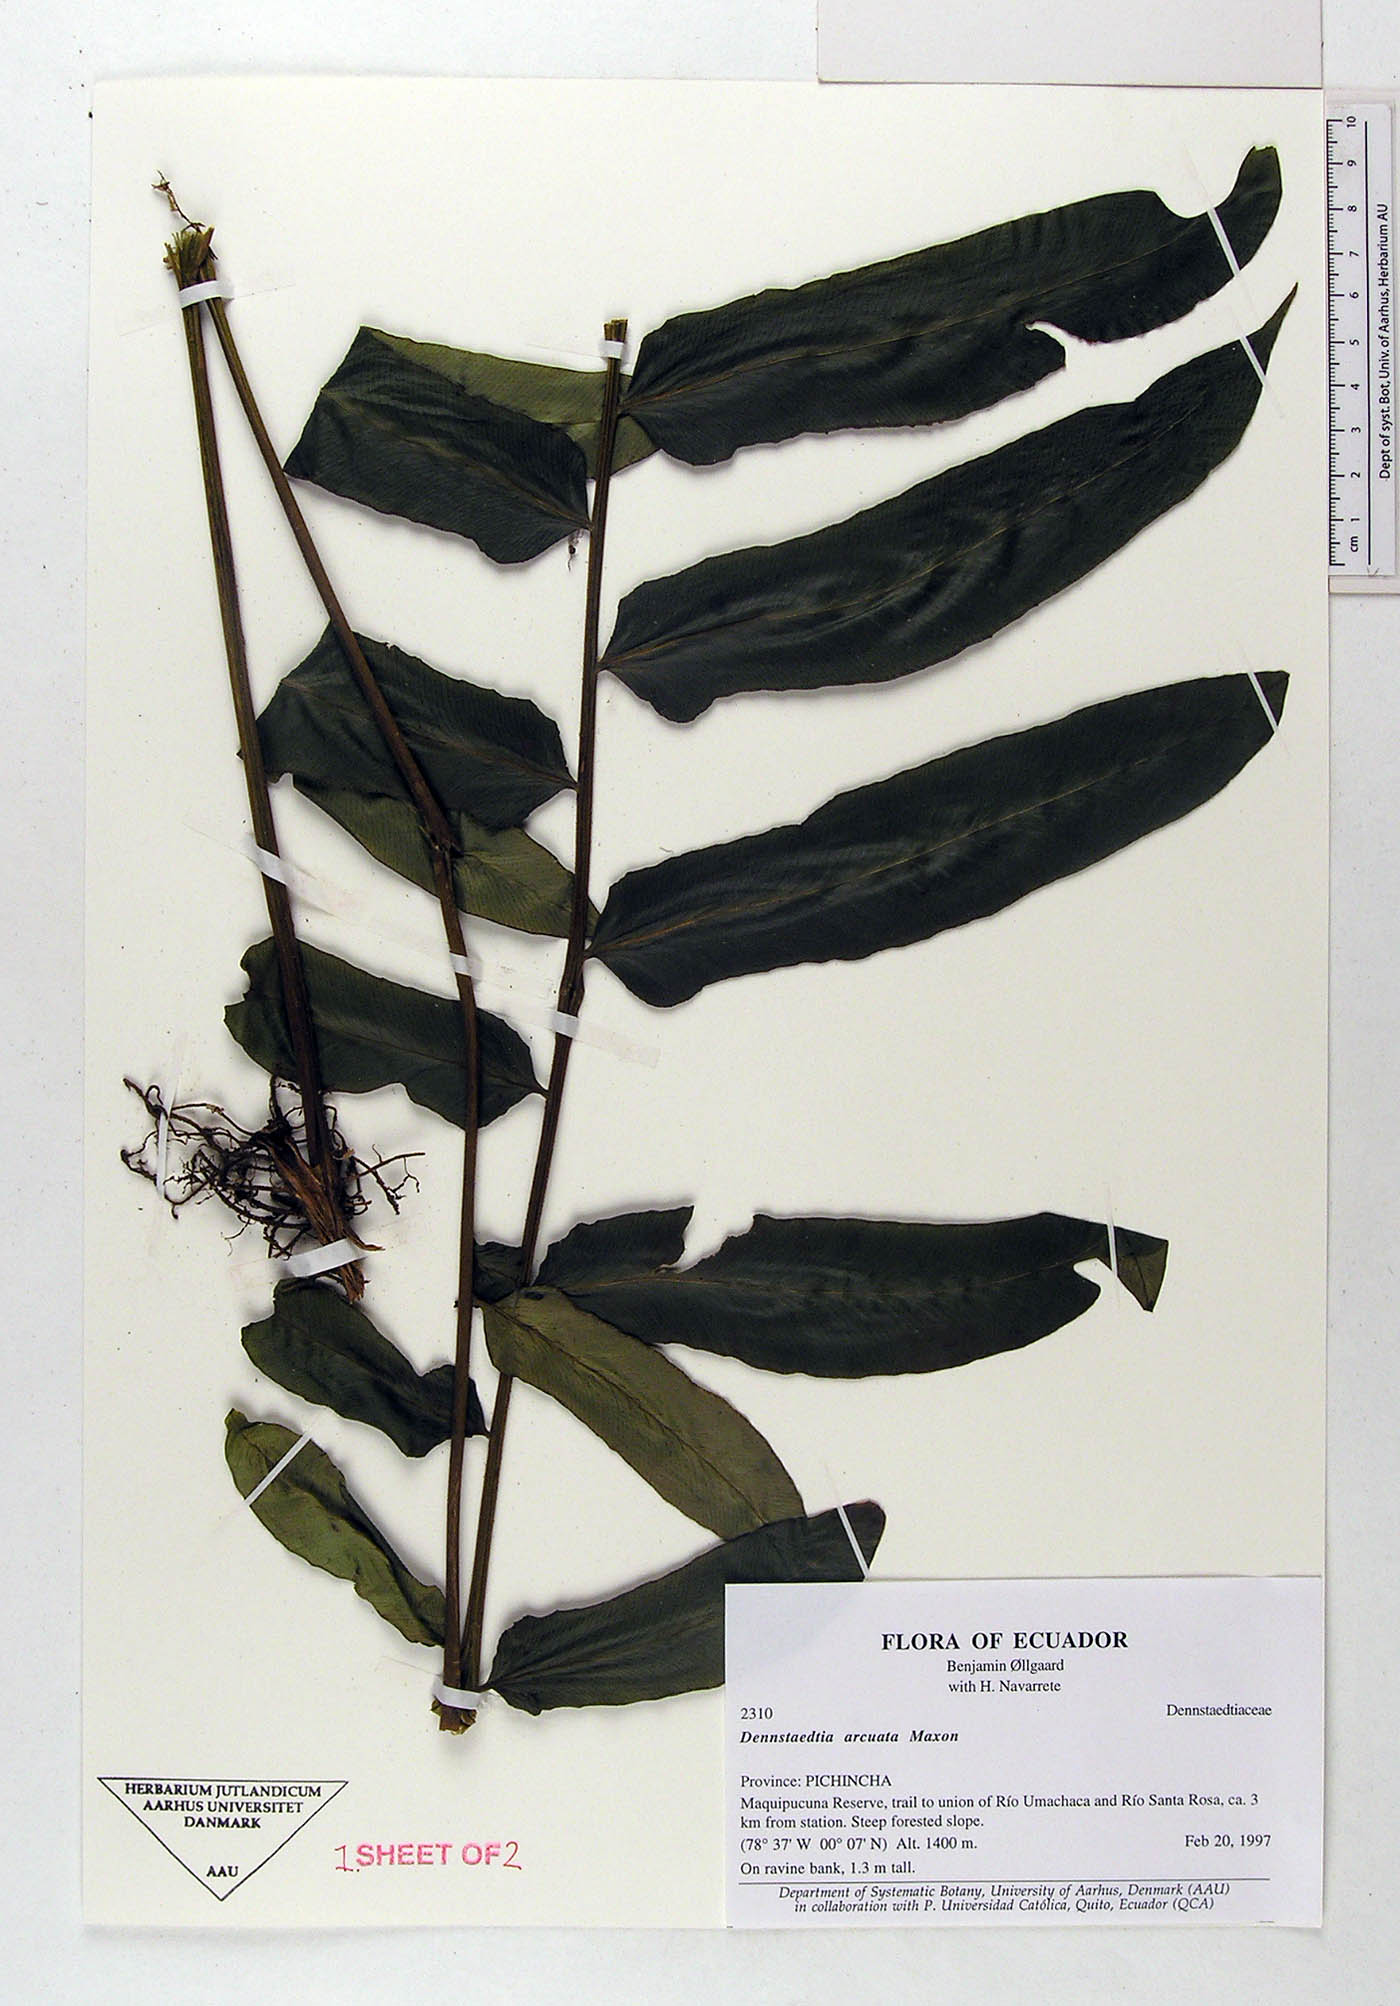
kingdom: Plantae
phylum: Tracheophyta
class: Polypodiopsida
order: Polypodiales
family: Dennstaedtiaceae
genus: Dennstaedtia
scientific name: Dennstaedtia arcuata
